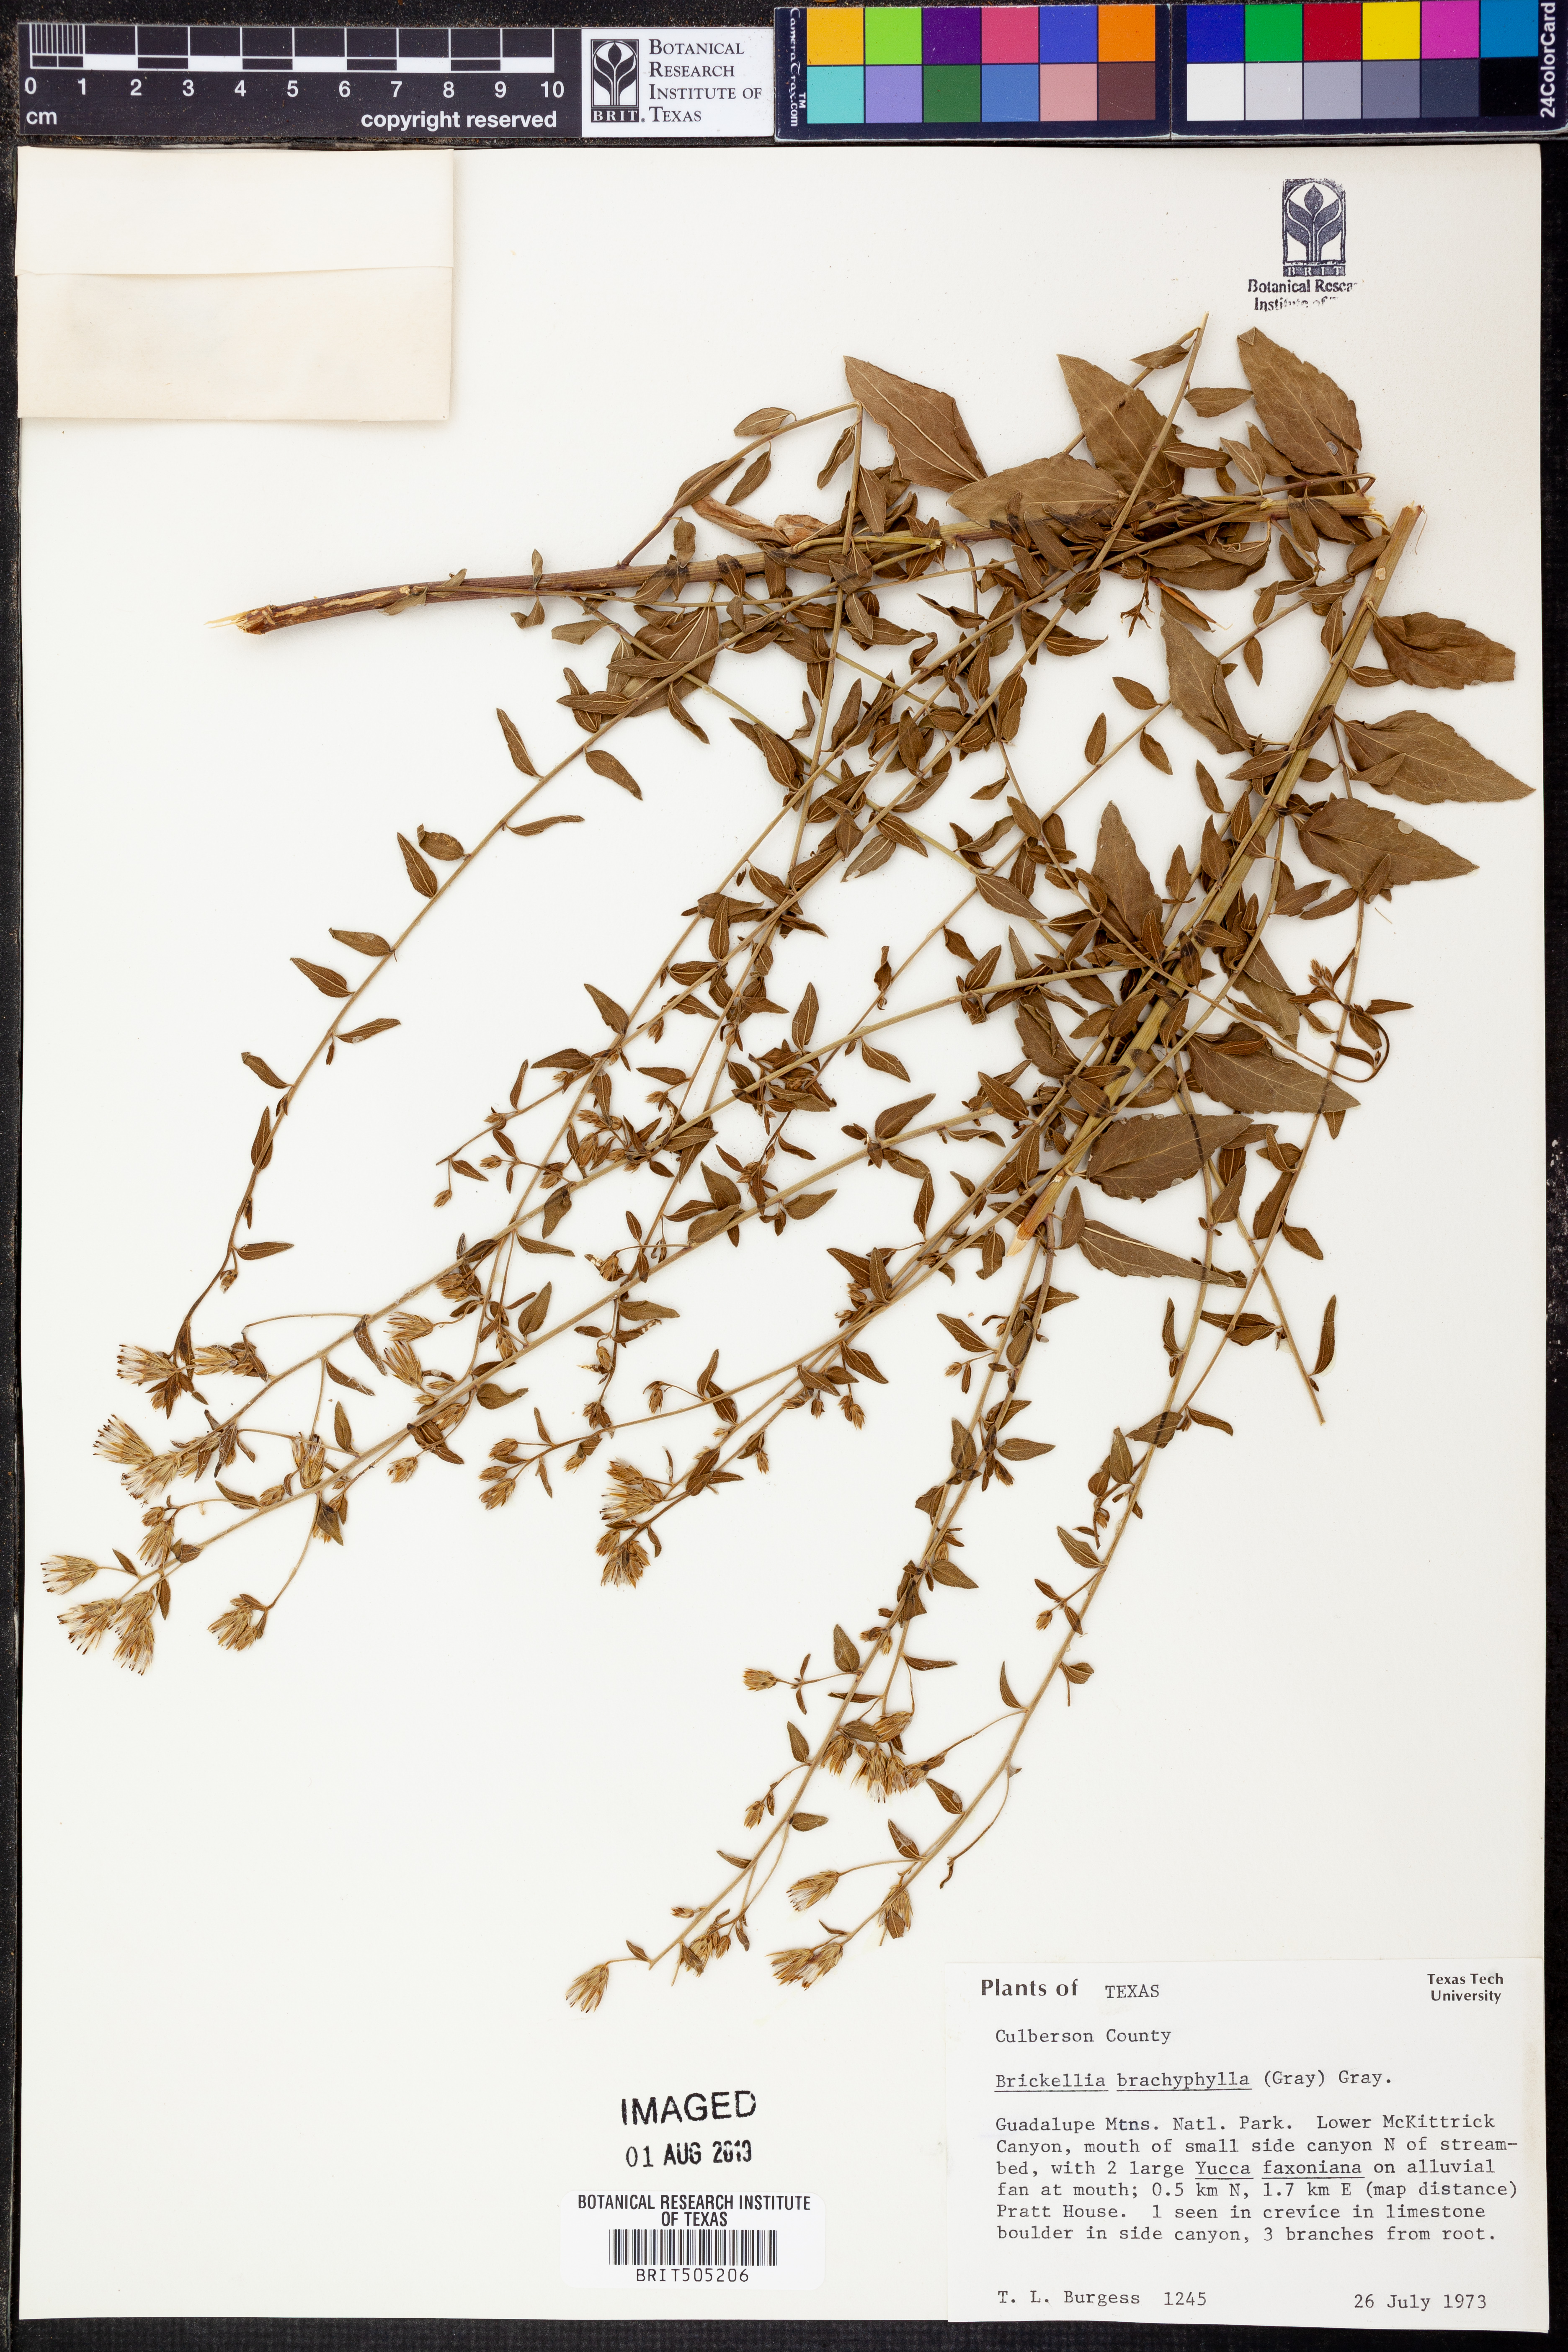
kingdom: Plantae
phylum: Tracheophyta
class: Magnoliopsida
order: Asterales
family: Asteraceae
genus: Brickellia
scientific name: Brickellia brachyphylla
